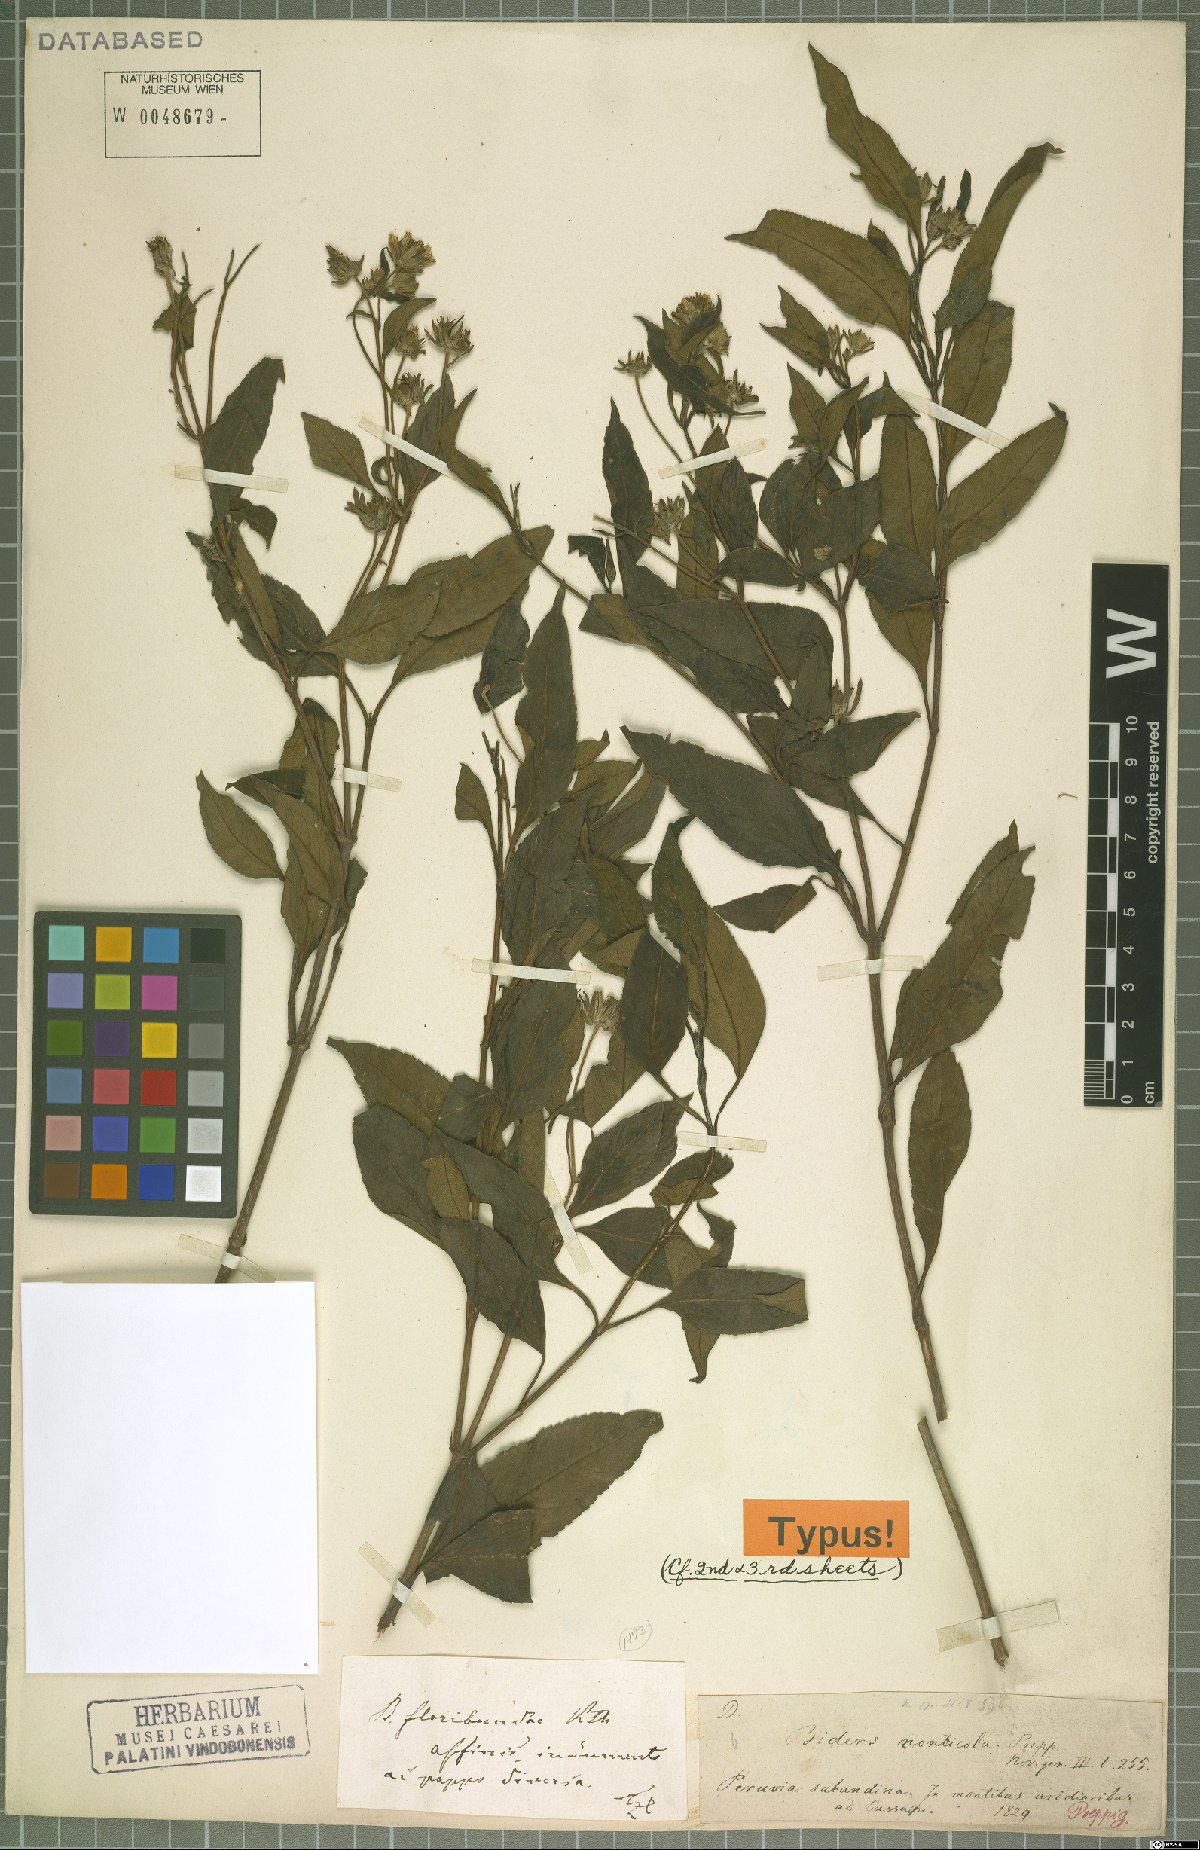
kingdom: Plantae
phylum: Tracheophyta
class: Magnoliopsida
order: Asterales
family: Asteraceae
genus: Bidens
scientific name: Bidens monticola
